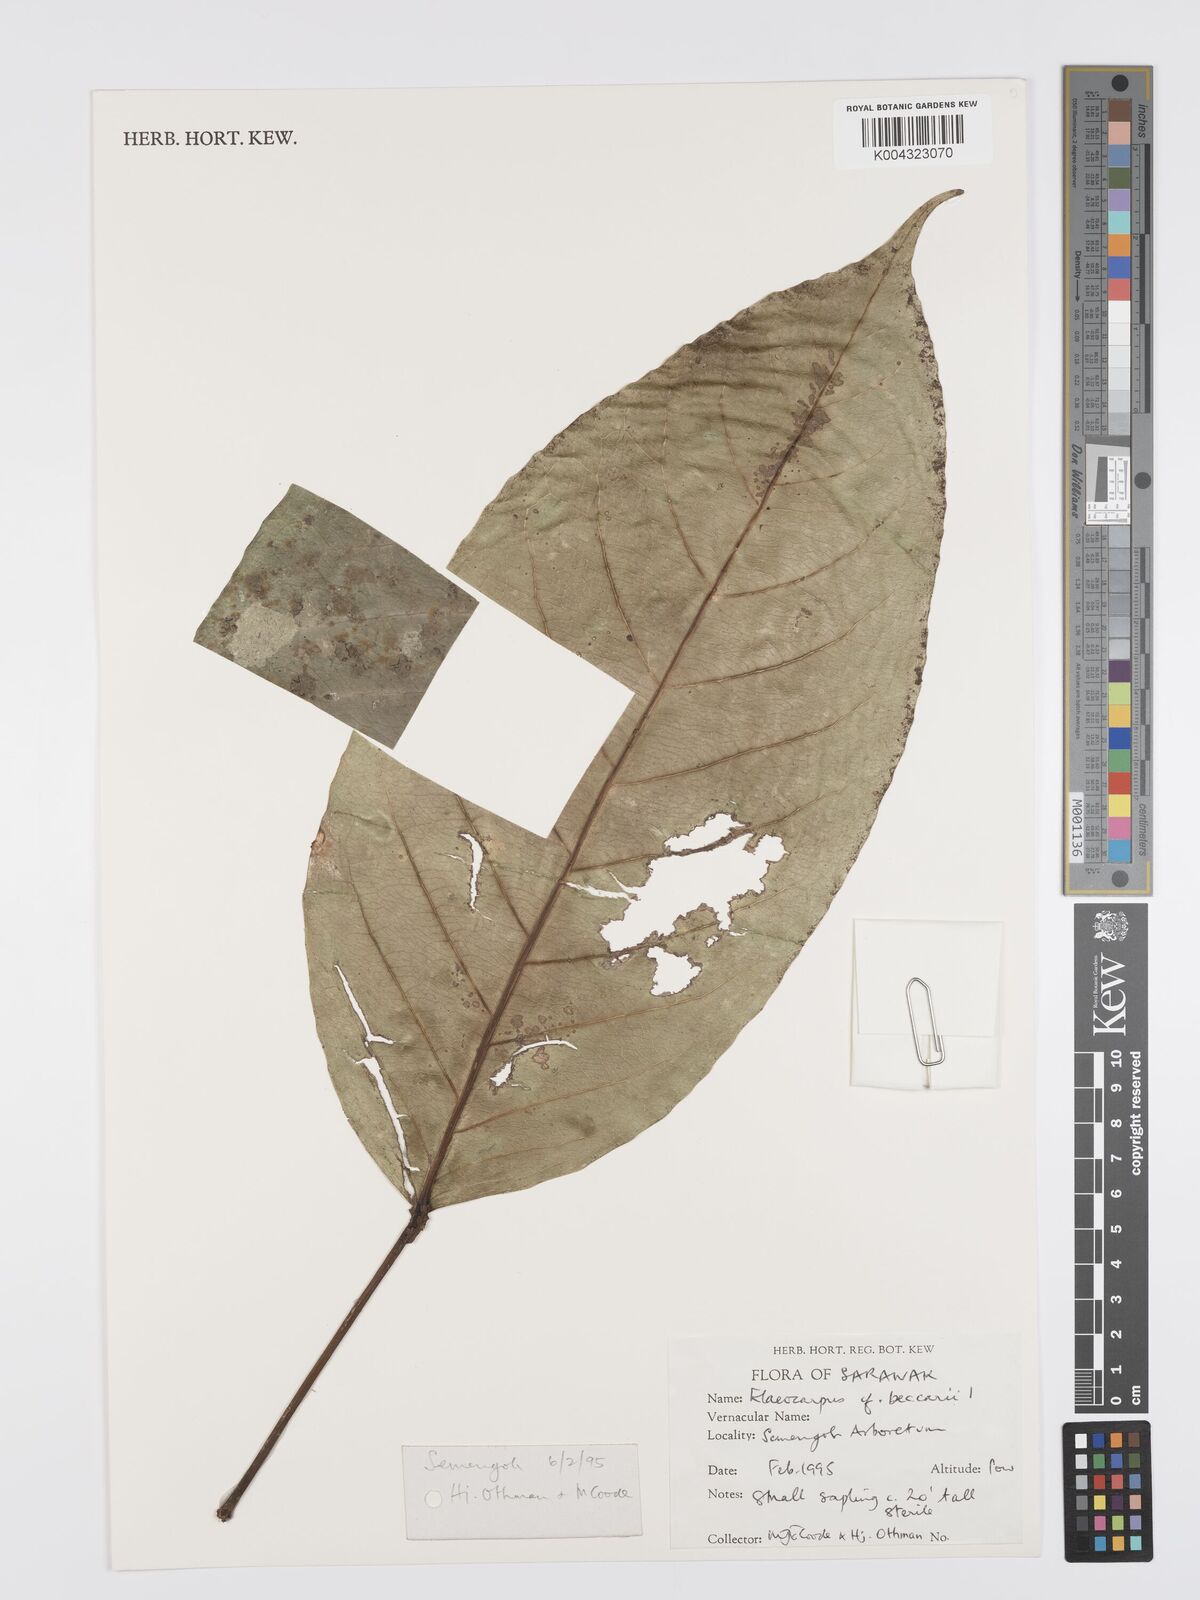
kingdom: Plantae
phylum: Tracheophyta
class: Magnoliopsida
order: Oxalidales
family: Elaeocarpaceae
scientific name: Elaeocarpaceae
